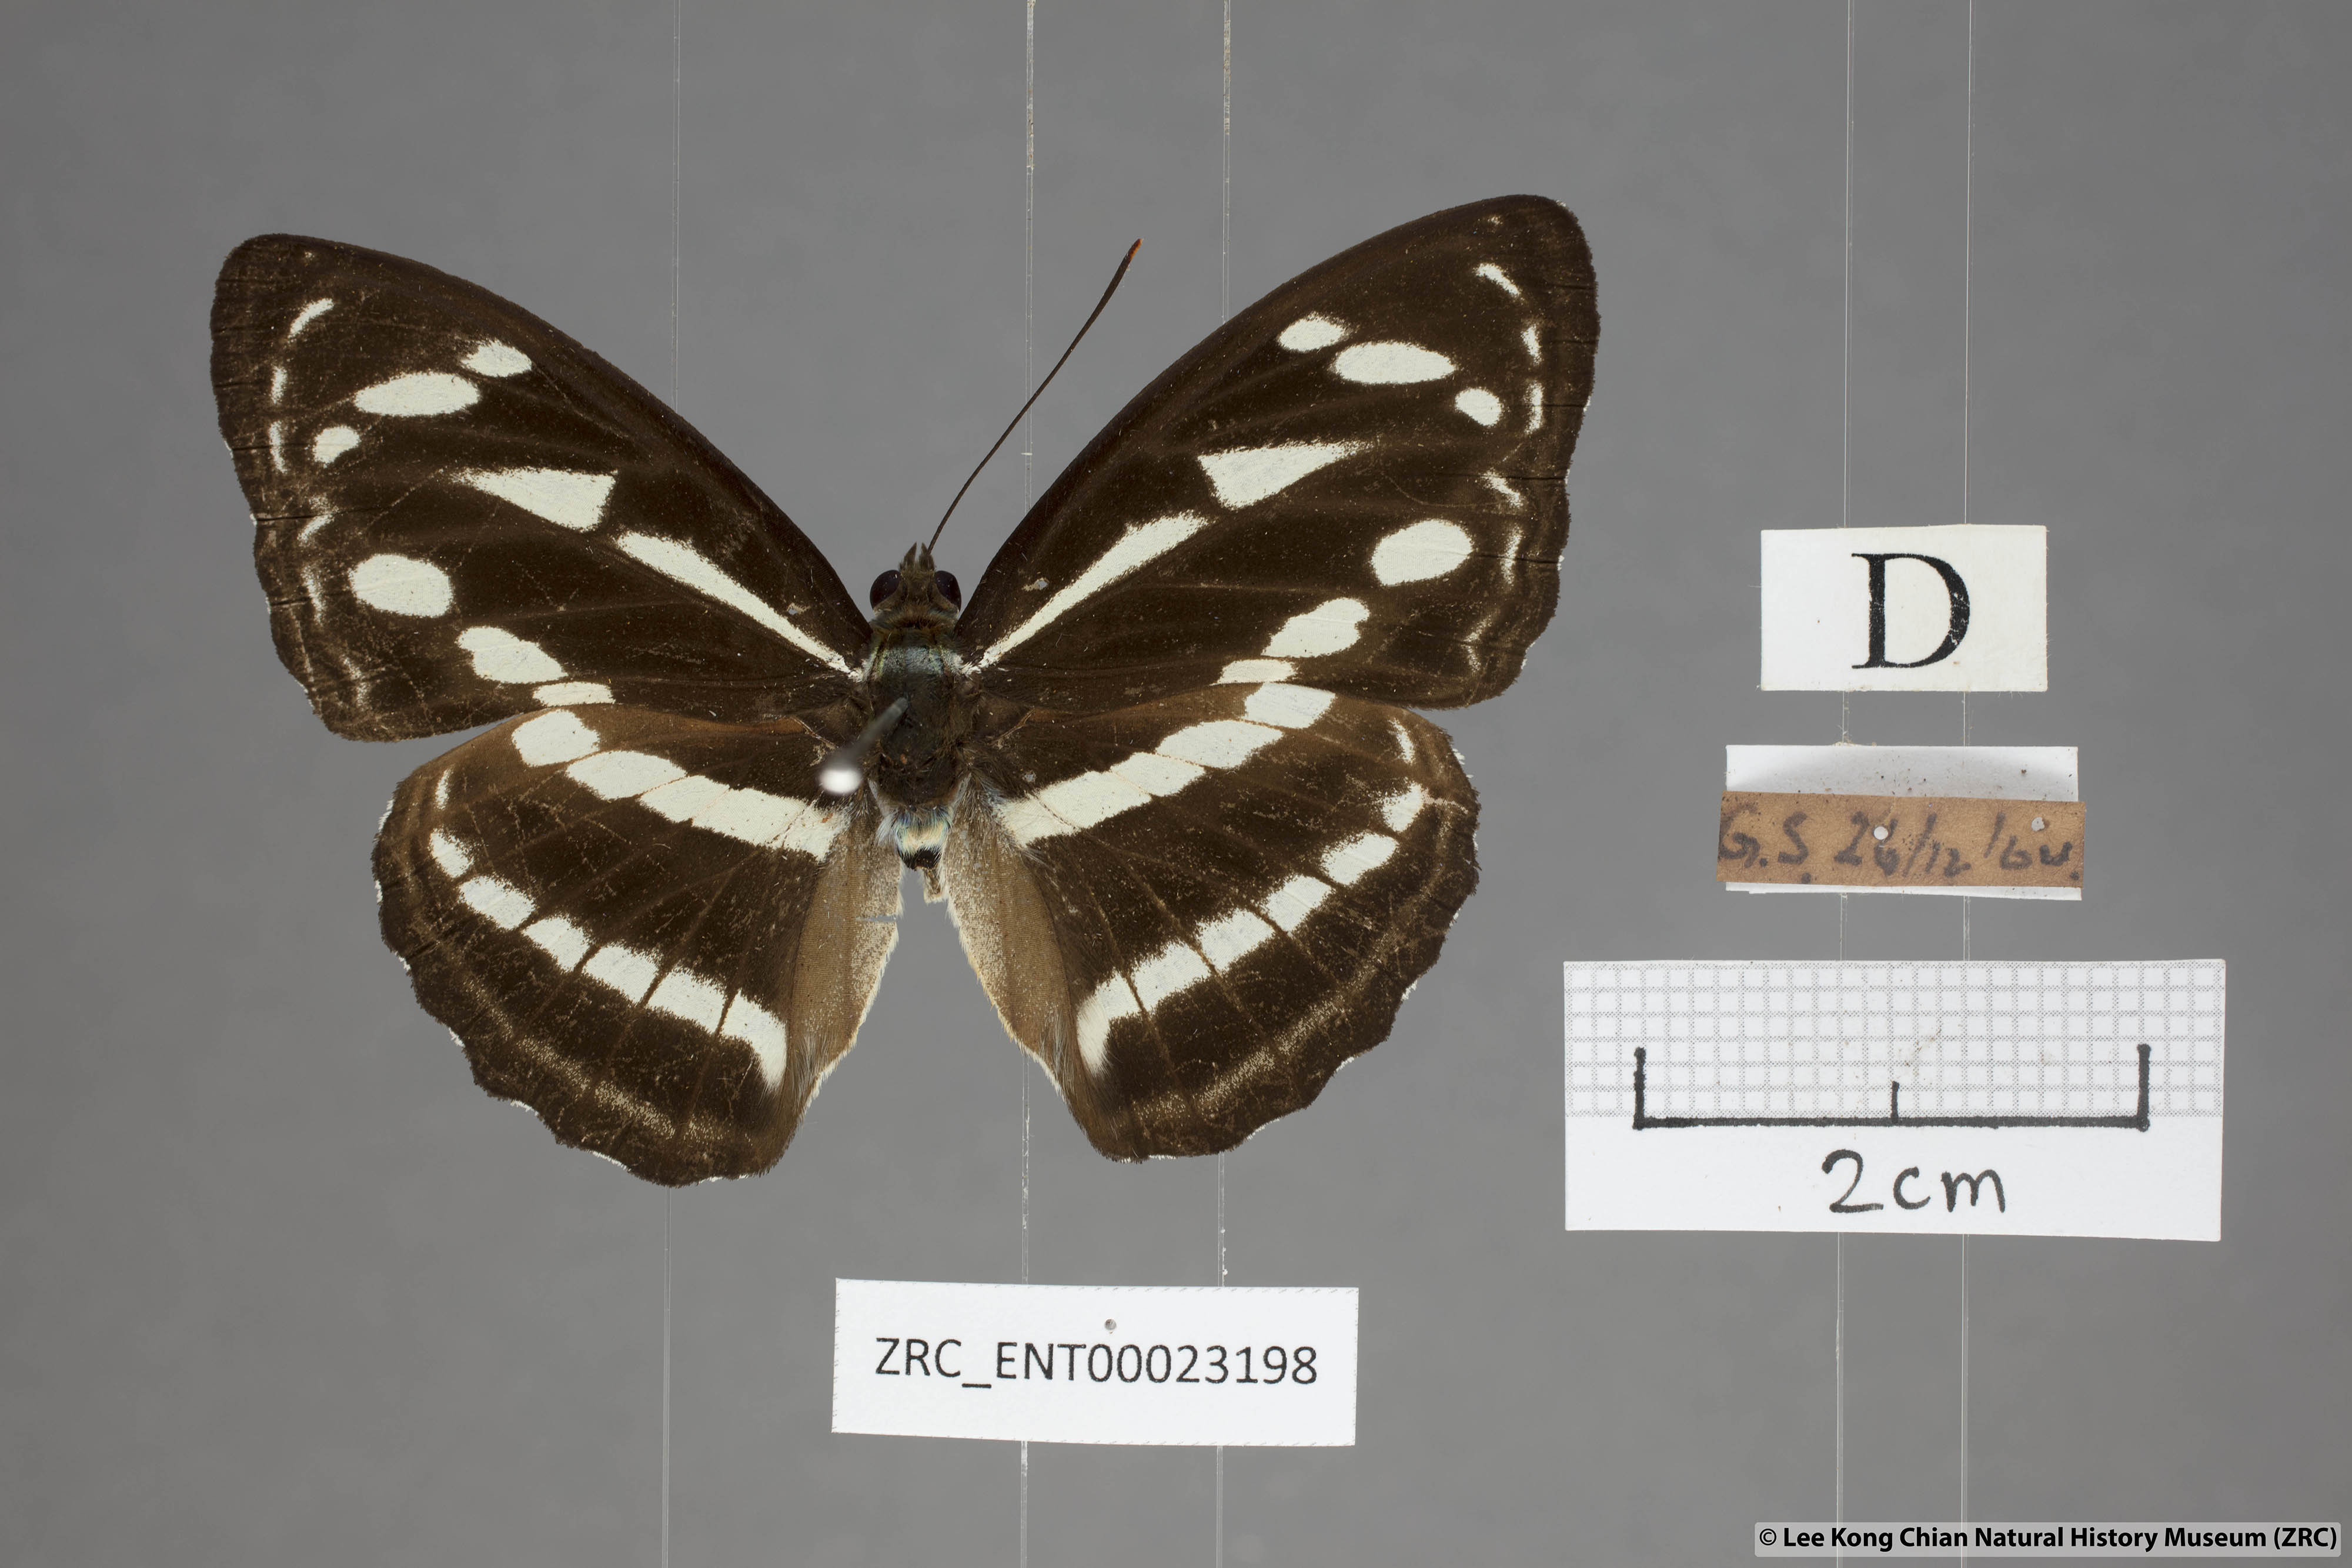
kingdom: Animalia
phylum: Arthropoda
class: Insecta
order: Lepidoptera
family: Nymphalidae
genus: Parathyma
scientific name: Parathyma kanwa
